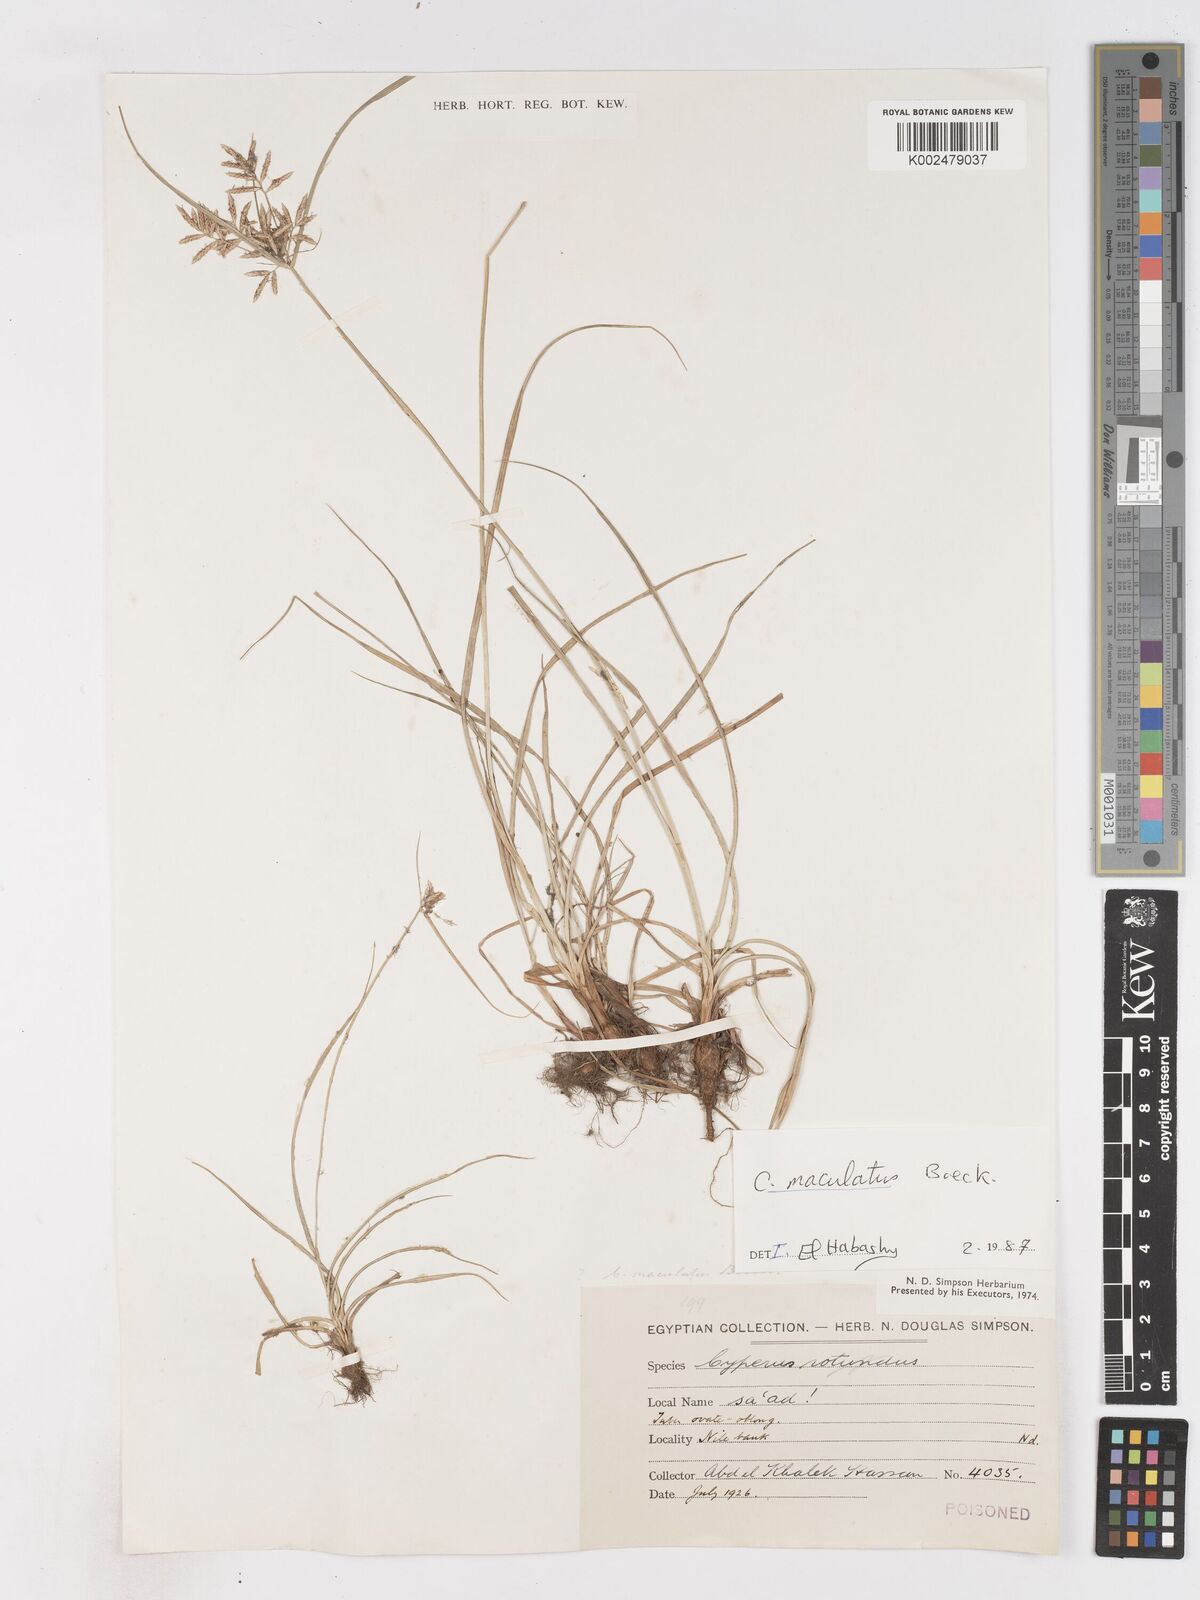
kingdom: Plantae
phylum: Tracheophyta
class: Liliopsida
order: Poales
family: Cyperaceae
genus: Cyperus
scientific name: Cyperus maculatus
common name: Maculated sedge
